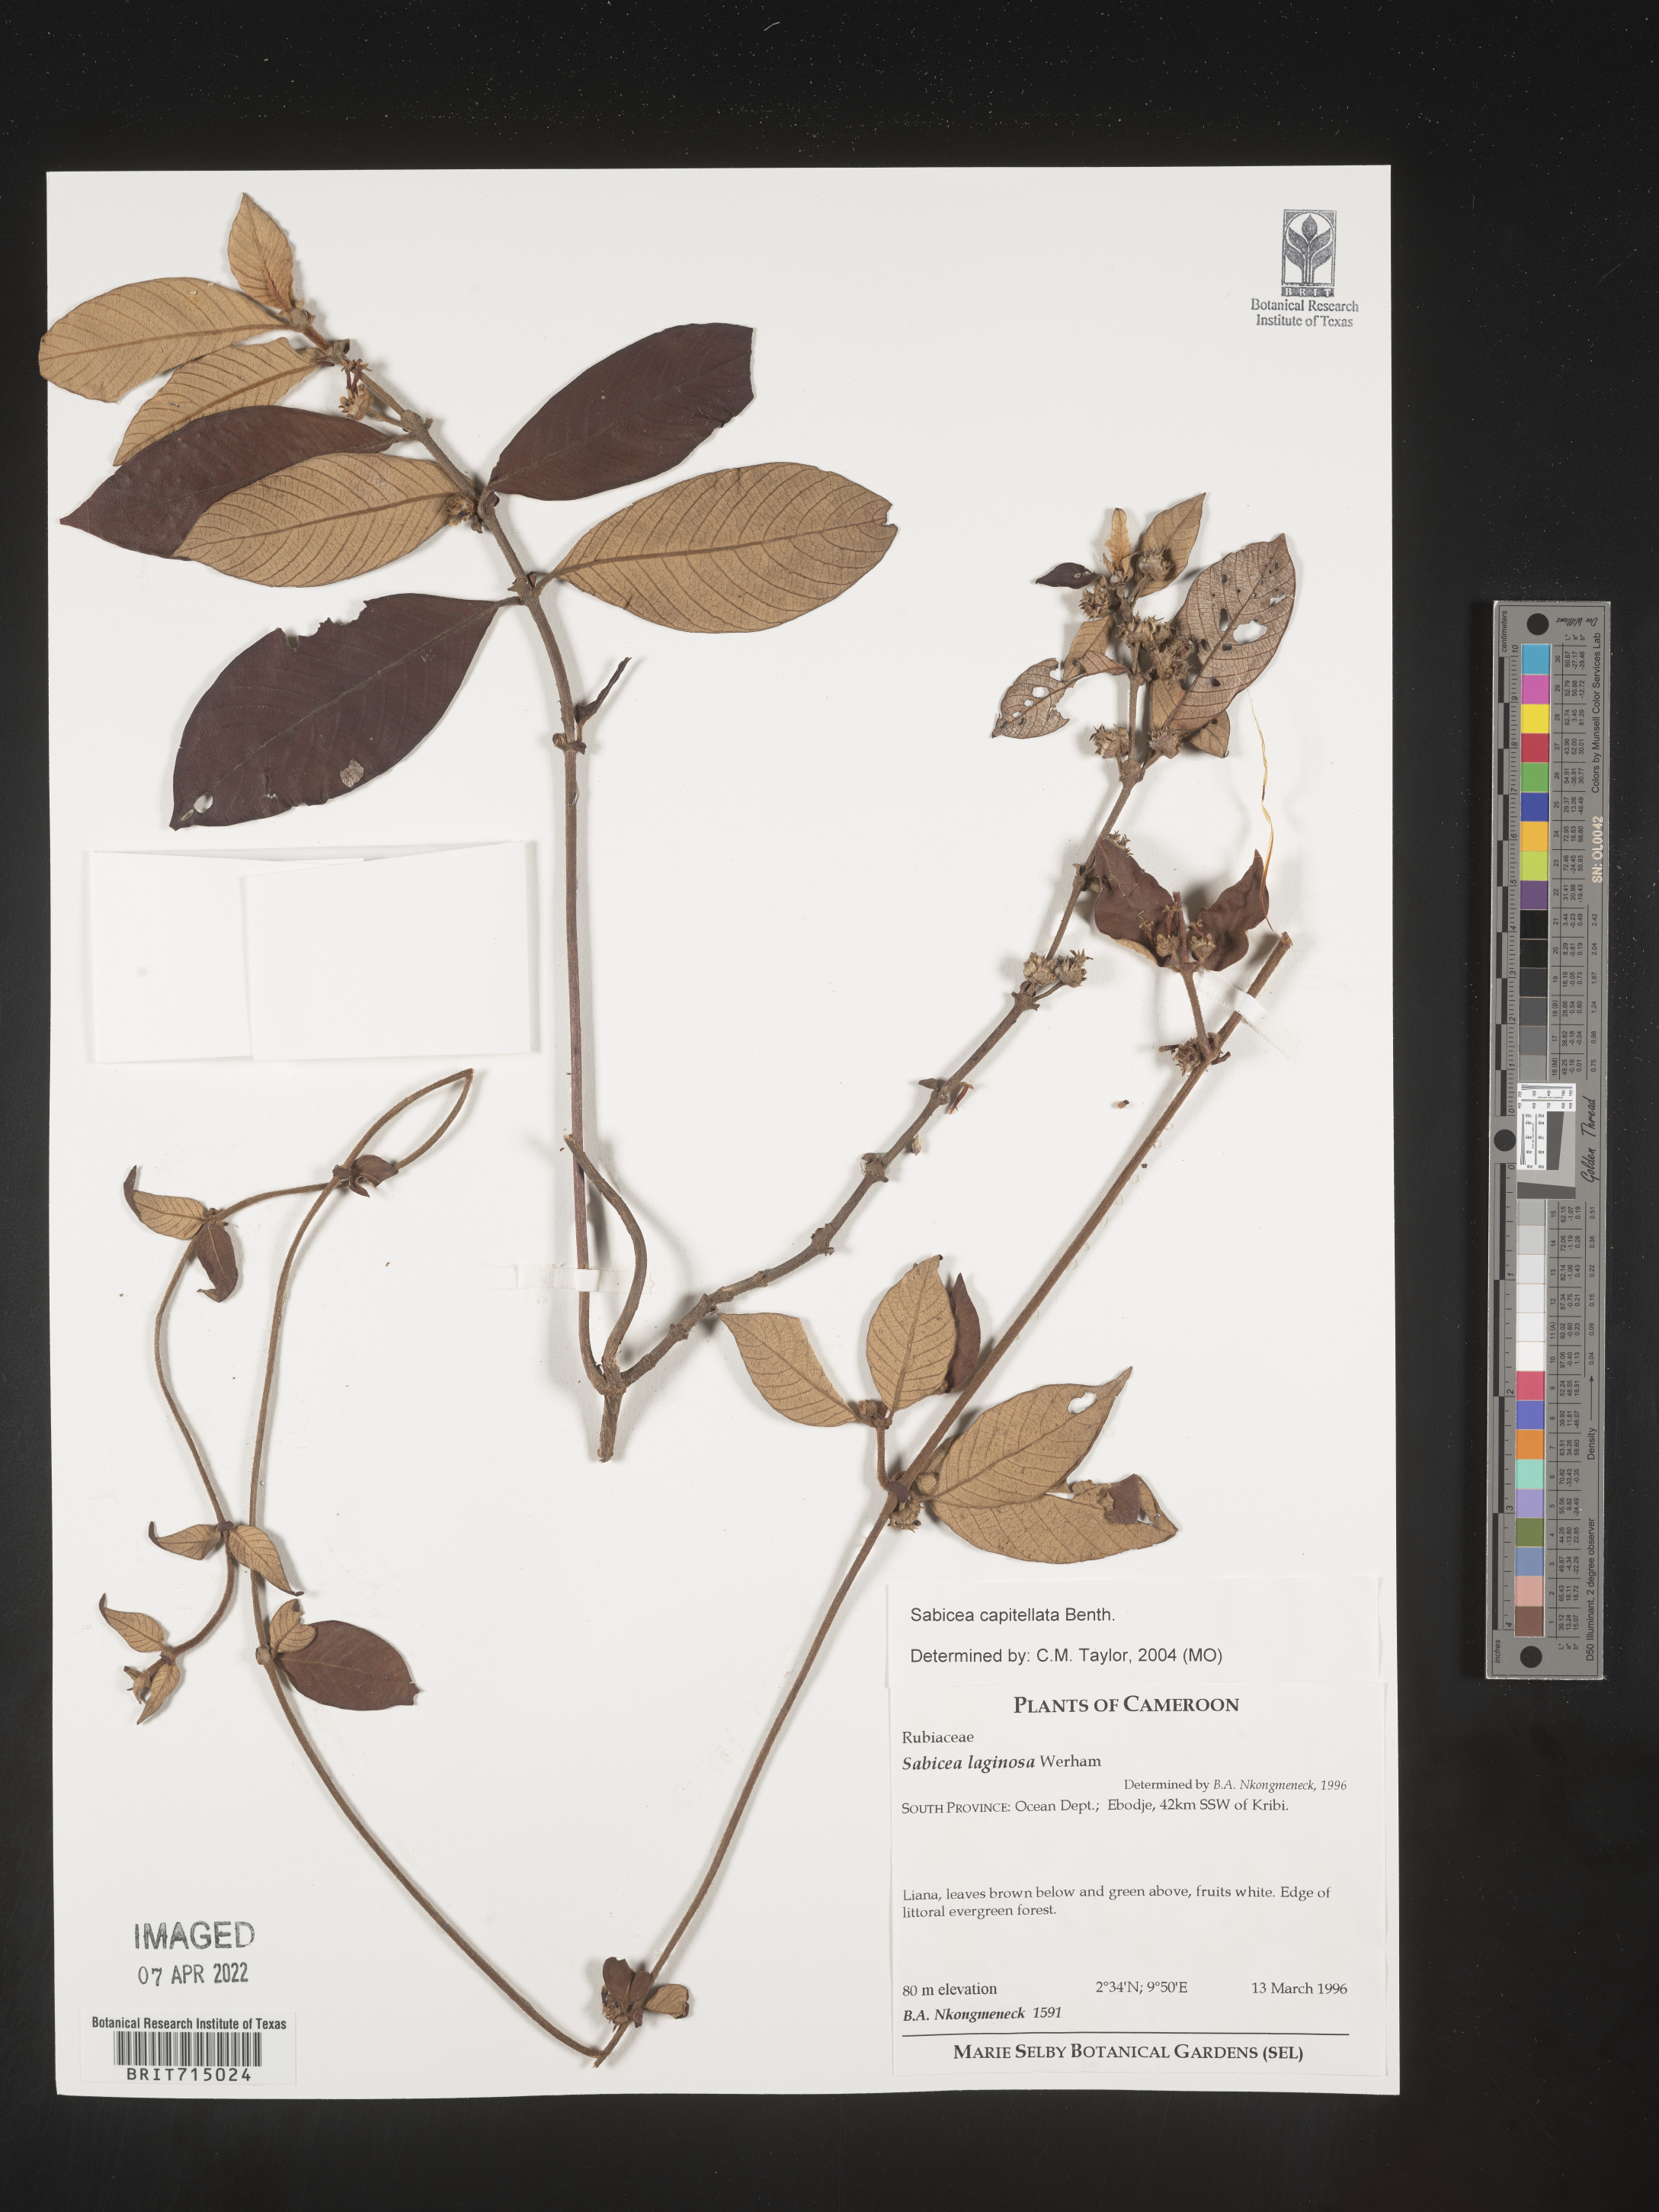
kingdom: Plantae
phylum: Tracheophyta
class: Magnoliopsida
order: Gentianales
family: Rubiaceae
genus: Sabicea
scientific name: Sabicea
